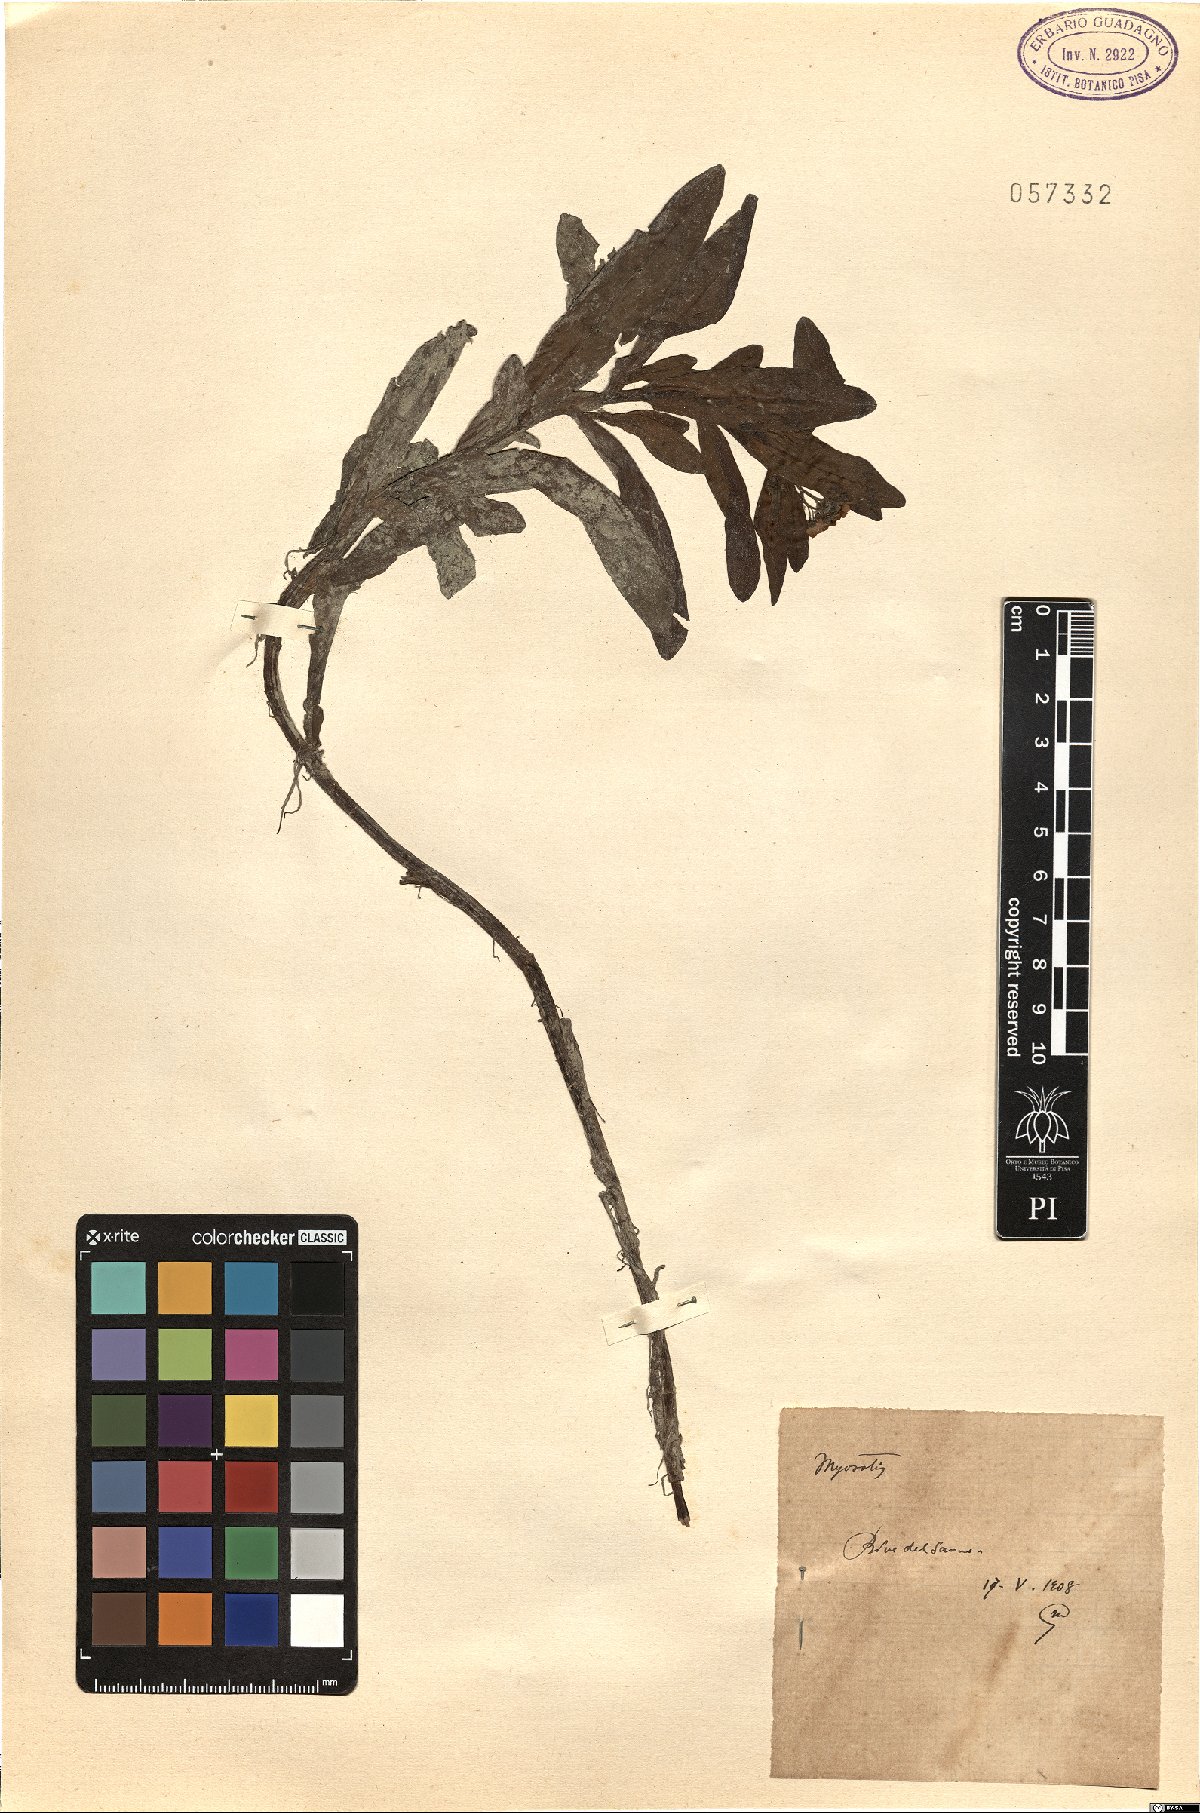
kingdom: Plantae
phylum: Tracheophyta
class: Magnoliopsida
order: Boraginales
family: Boraginaceae
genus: Myosotis
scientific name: Myosotis
